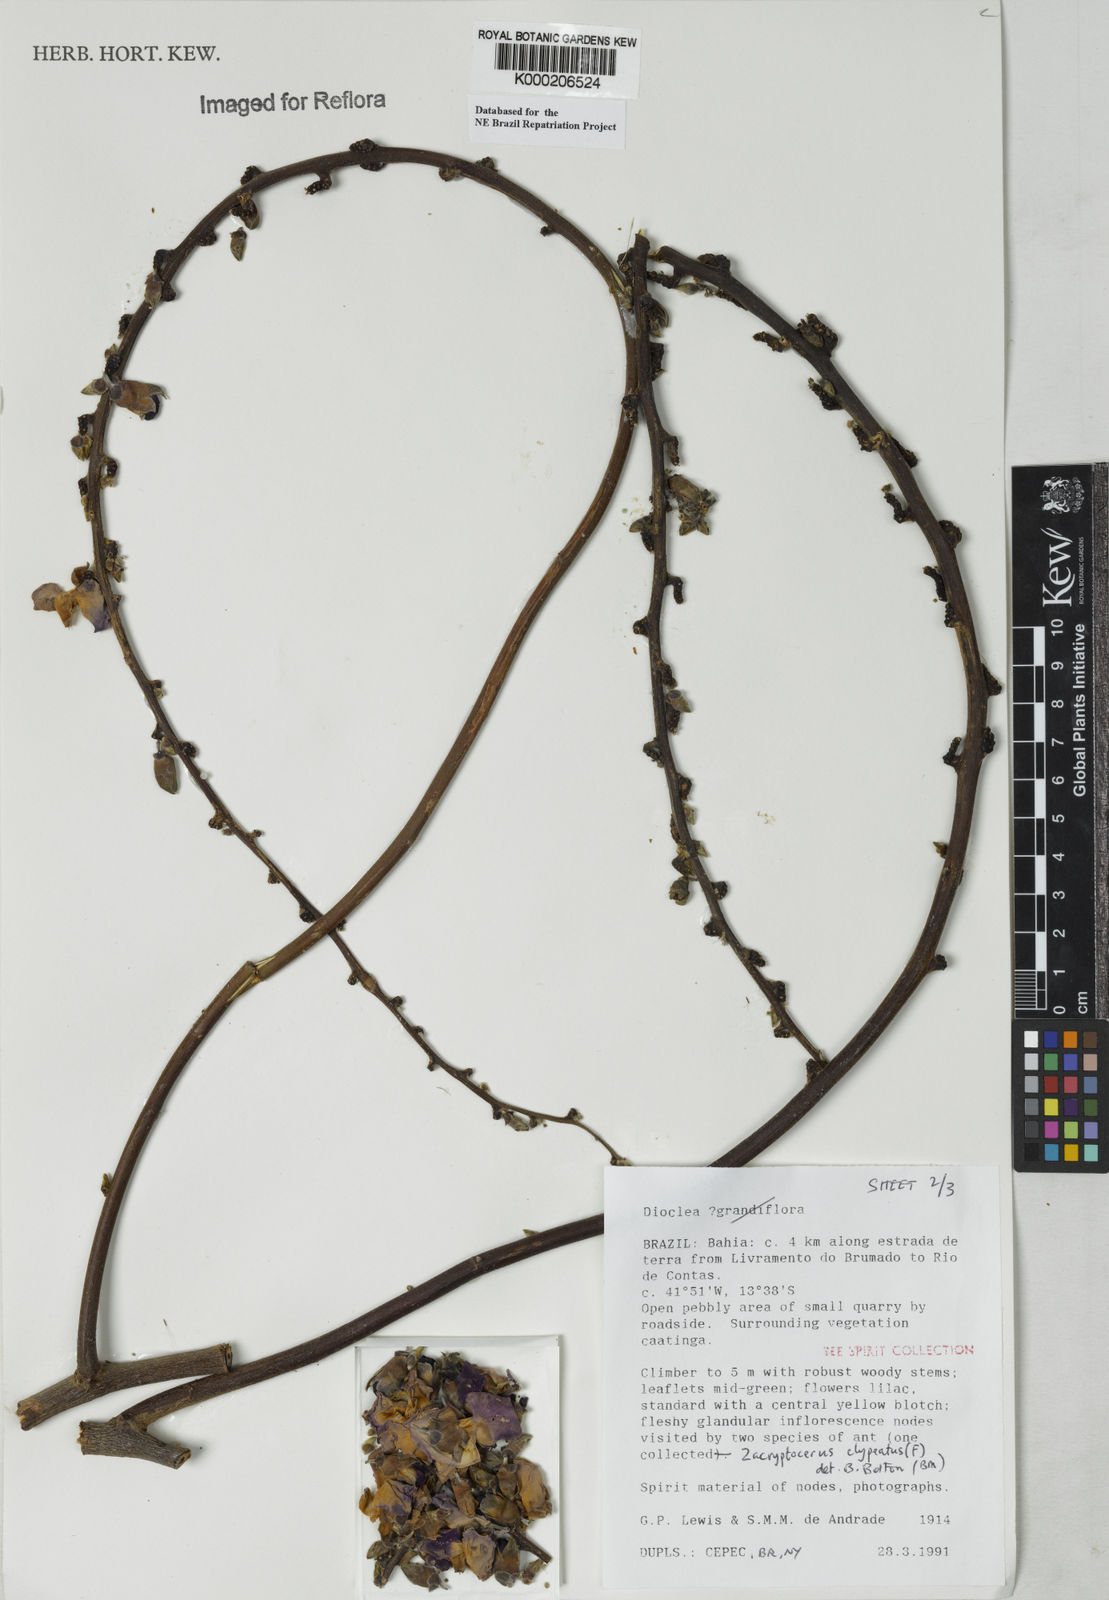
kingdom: Plantae
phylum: Tracheophyta
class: Magnoliopsida
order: Fabales
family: Fabaceae
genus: Dioclea
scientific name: Dioclea
